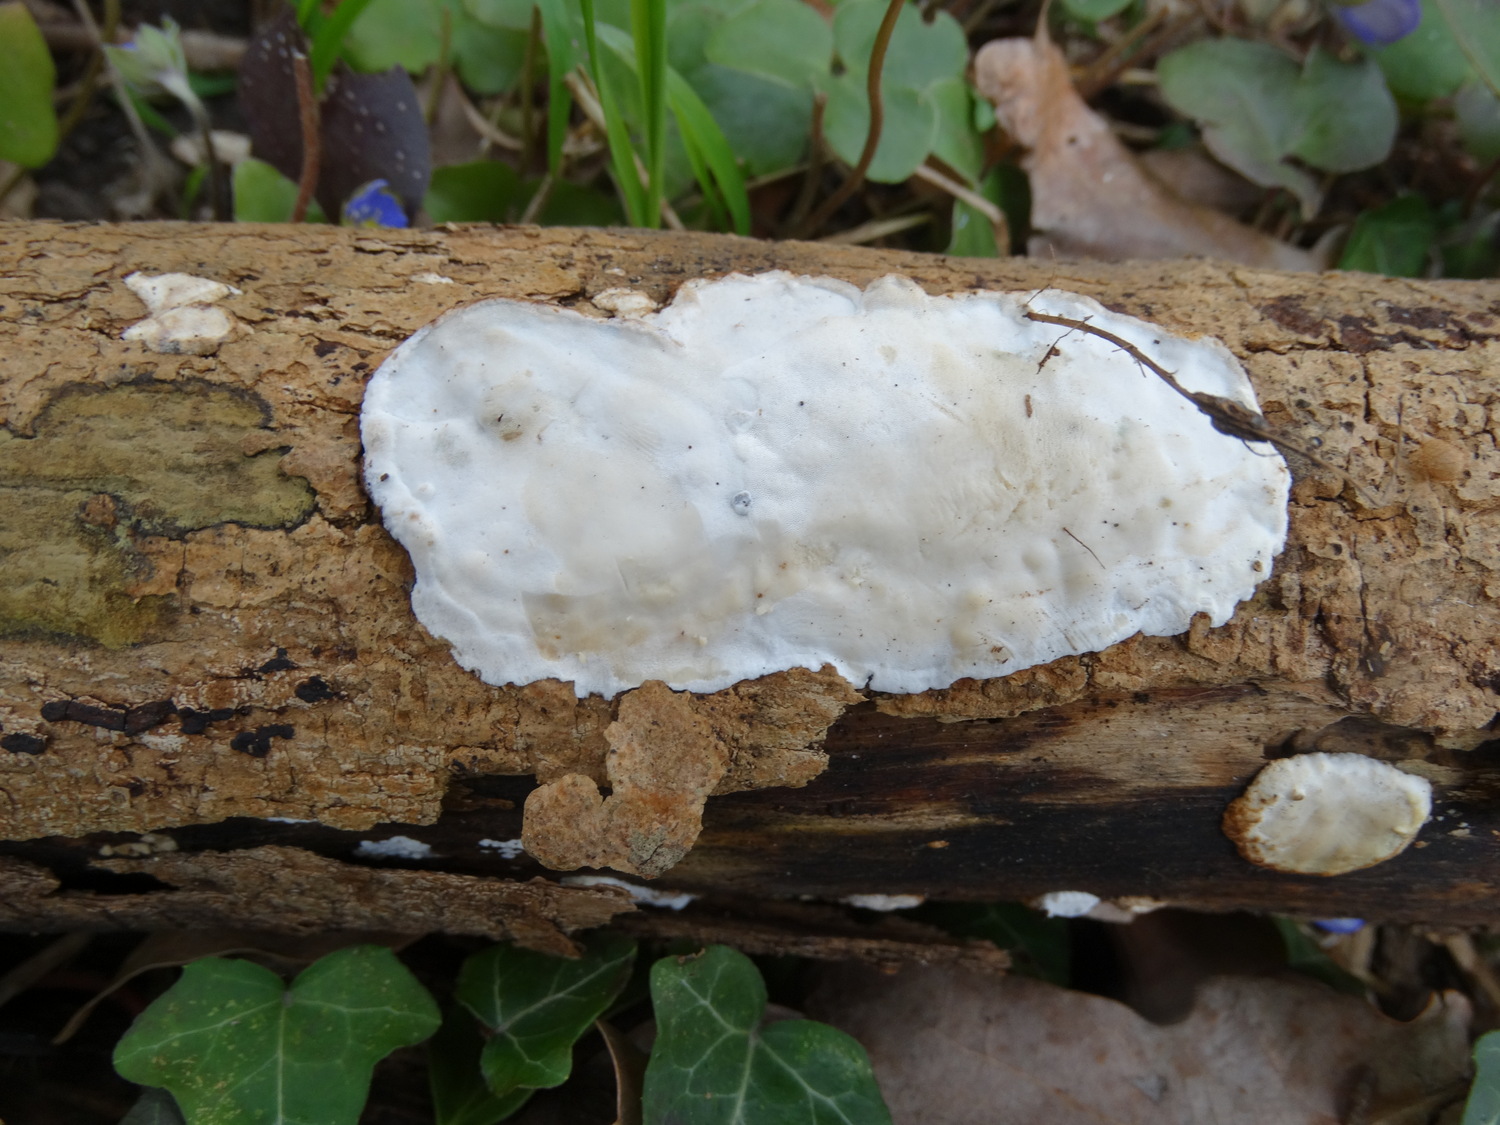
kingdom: Fungi
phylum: Basidiomycota
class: Agaricomycetes
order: Polyporales
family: Incrustoporiaceae
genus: Skeletocutis
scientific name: Skeletocutis nemoralis
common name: stor krystalporesvamp
